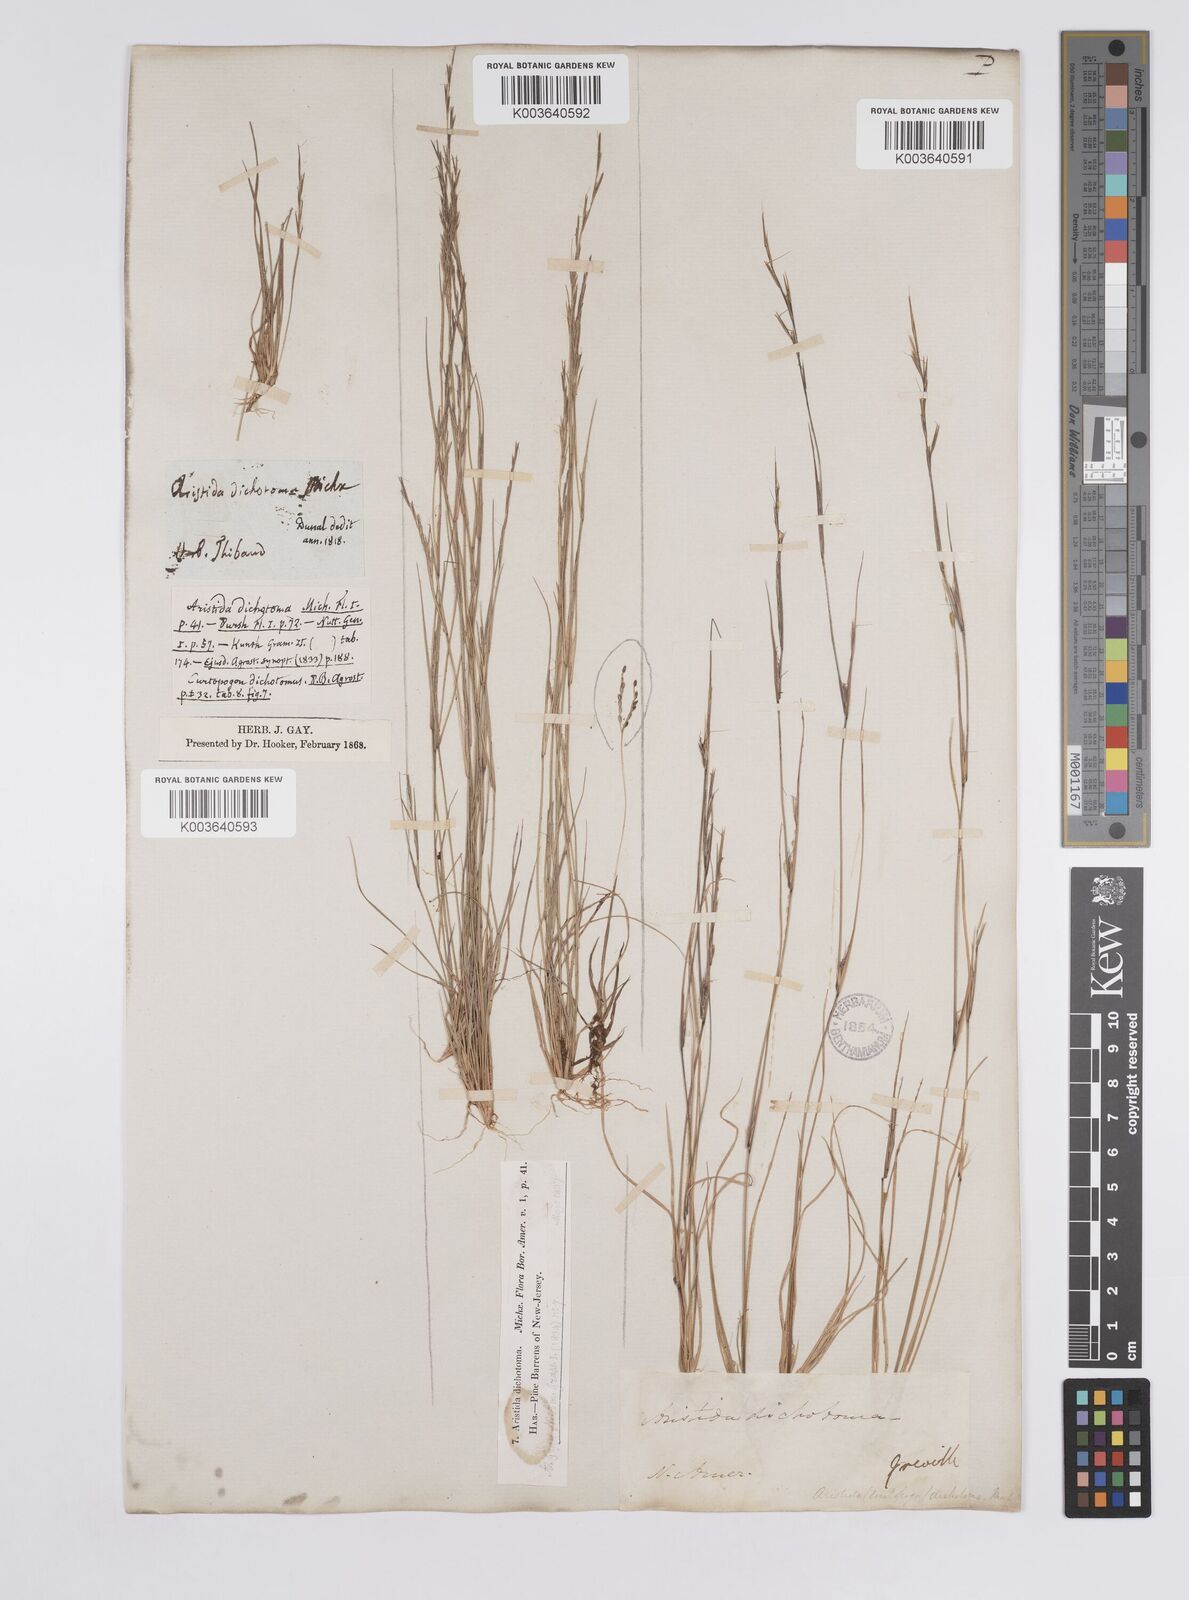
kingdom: Plantae
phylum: Tracheophyta
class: Liliopsida
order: Poales
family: Poaceae
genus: Aristida
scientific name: Aristida dichotoma
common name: Churchmouse three-awn
